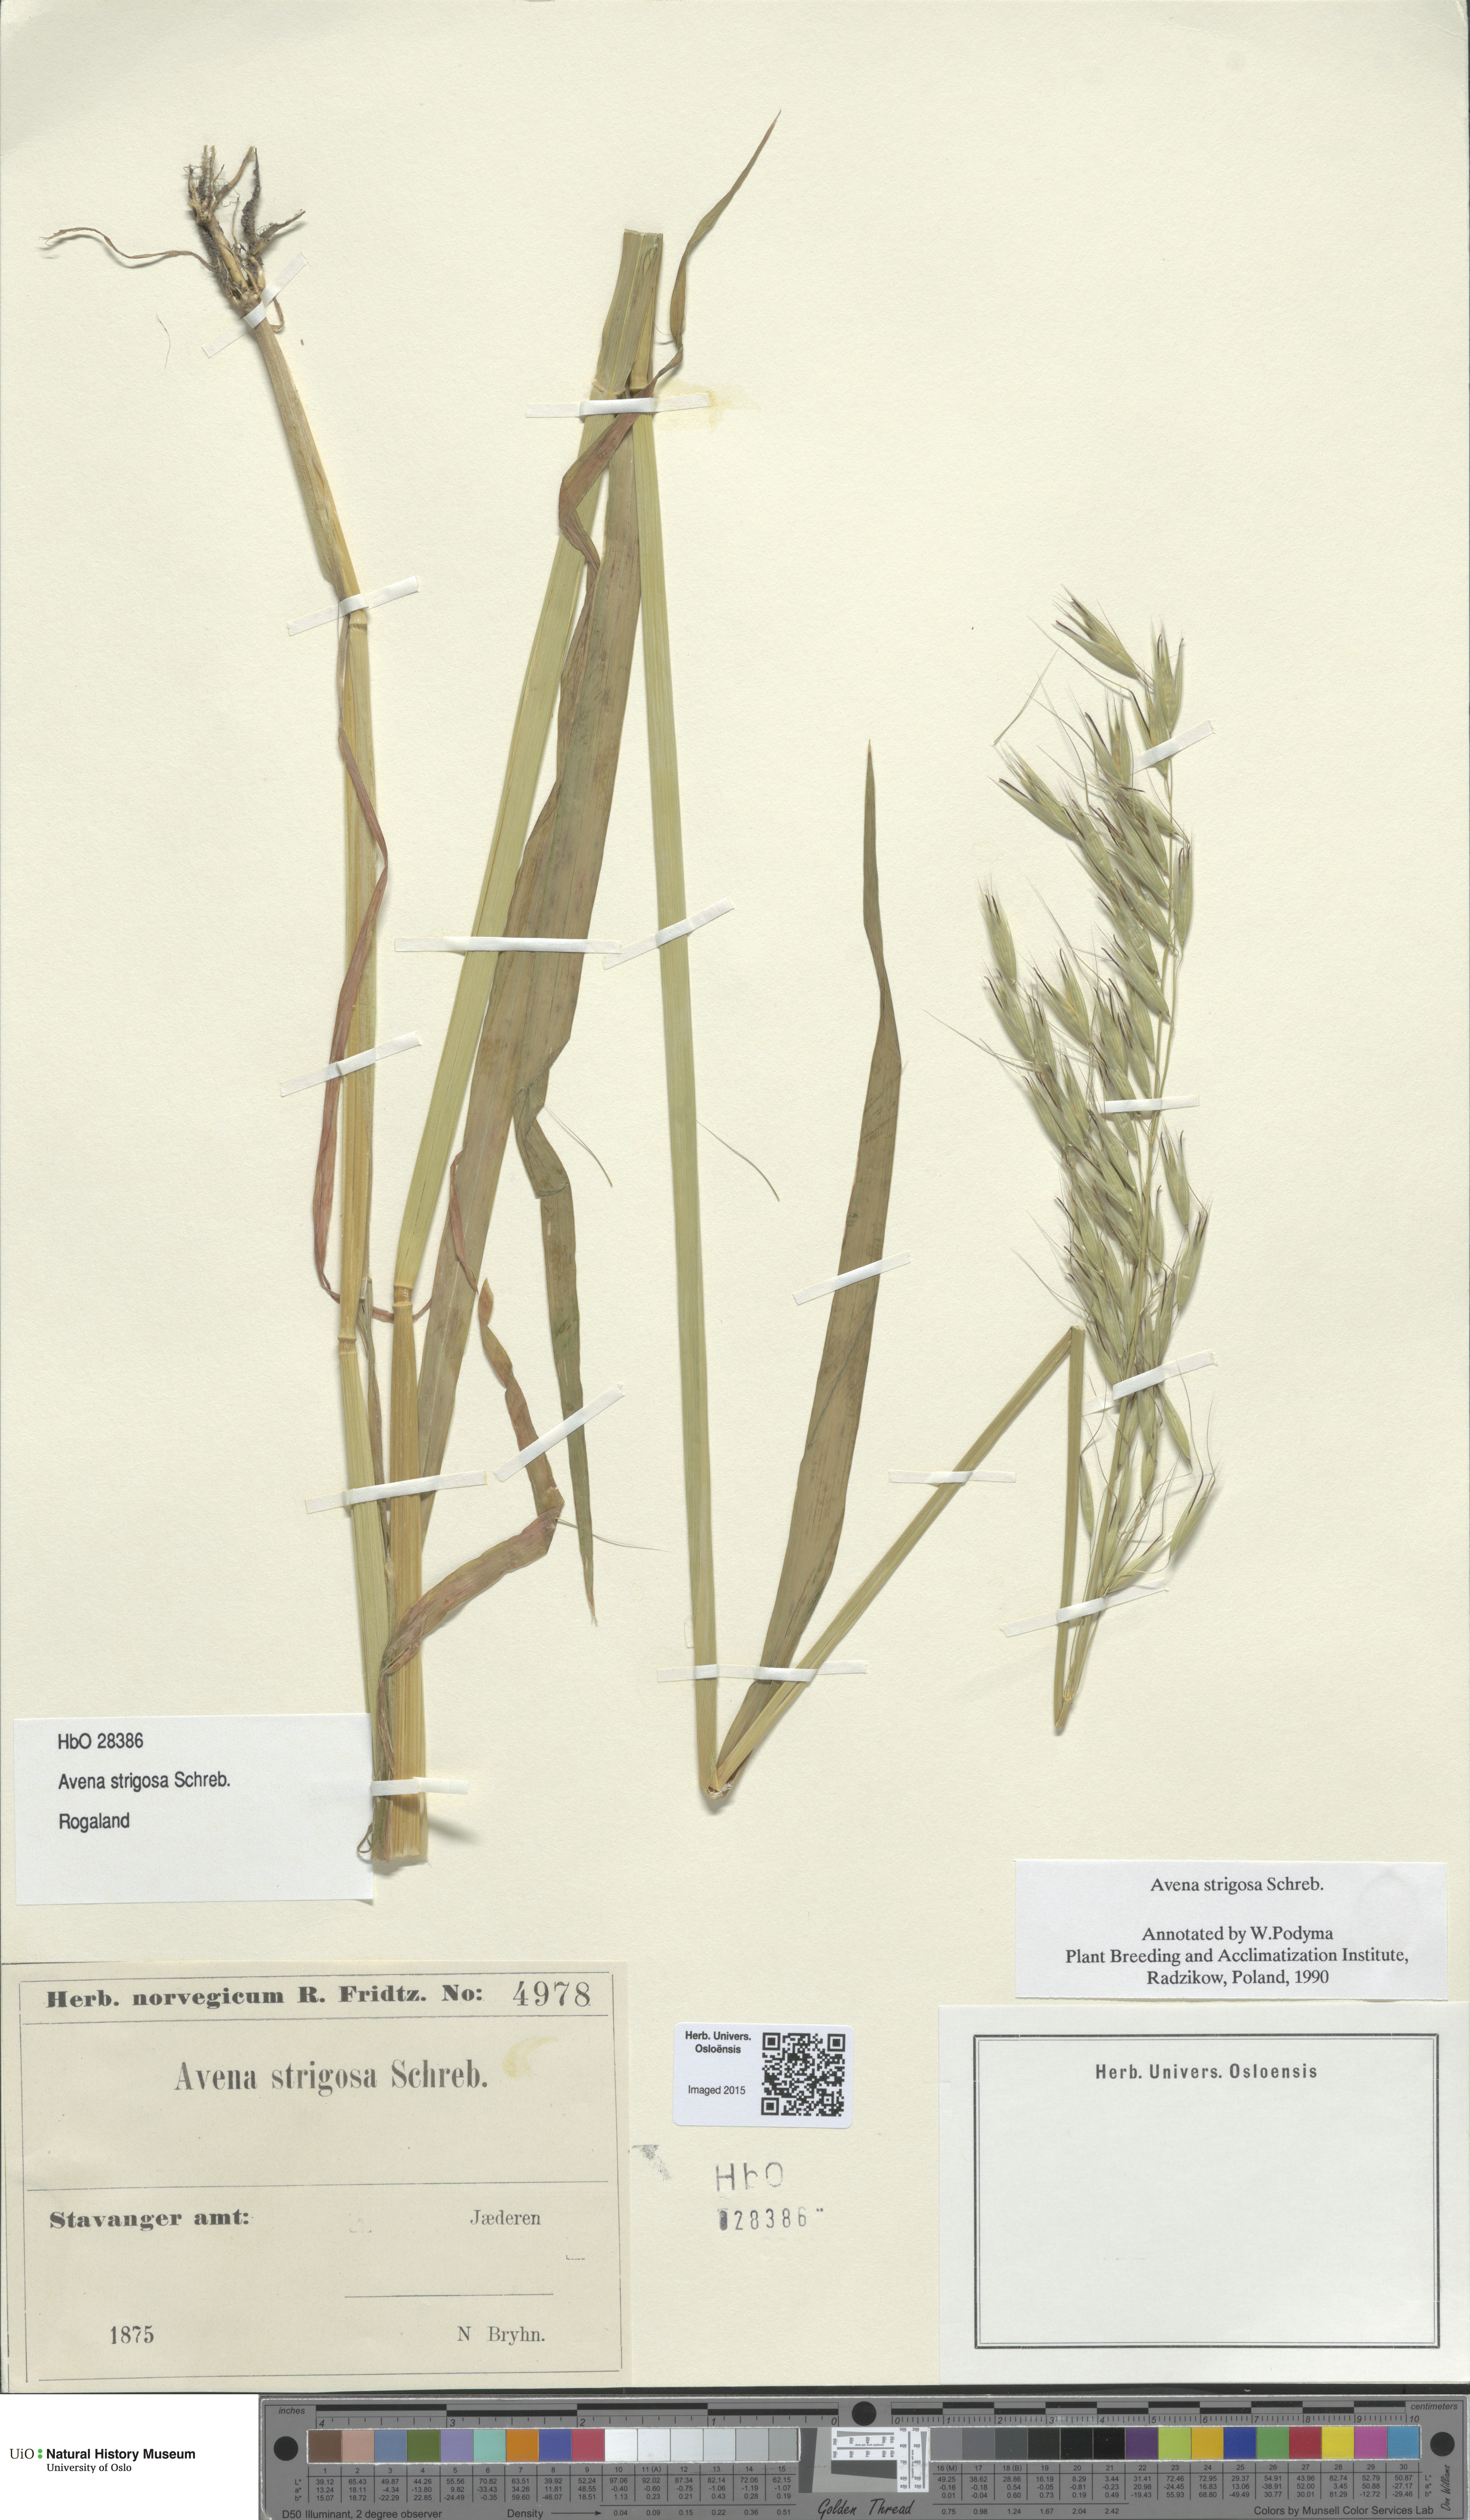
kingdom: Plantae
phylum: Tracheophyta
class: Liliopsida
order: Poales
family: Poaceae
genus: Avena
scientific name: Avena strigosa
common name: Bristle oat
